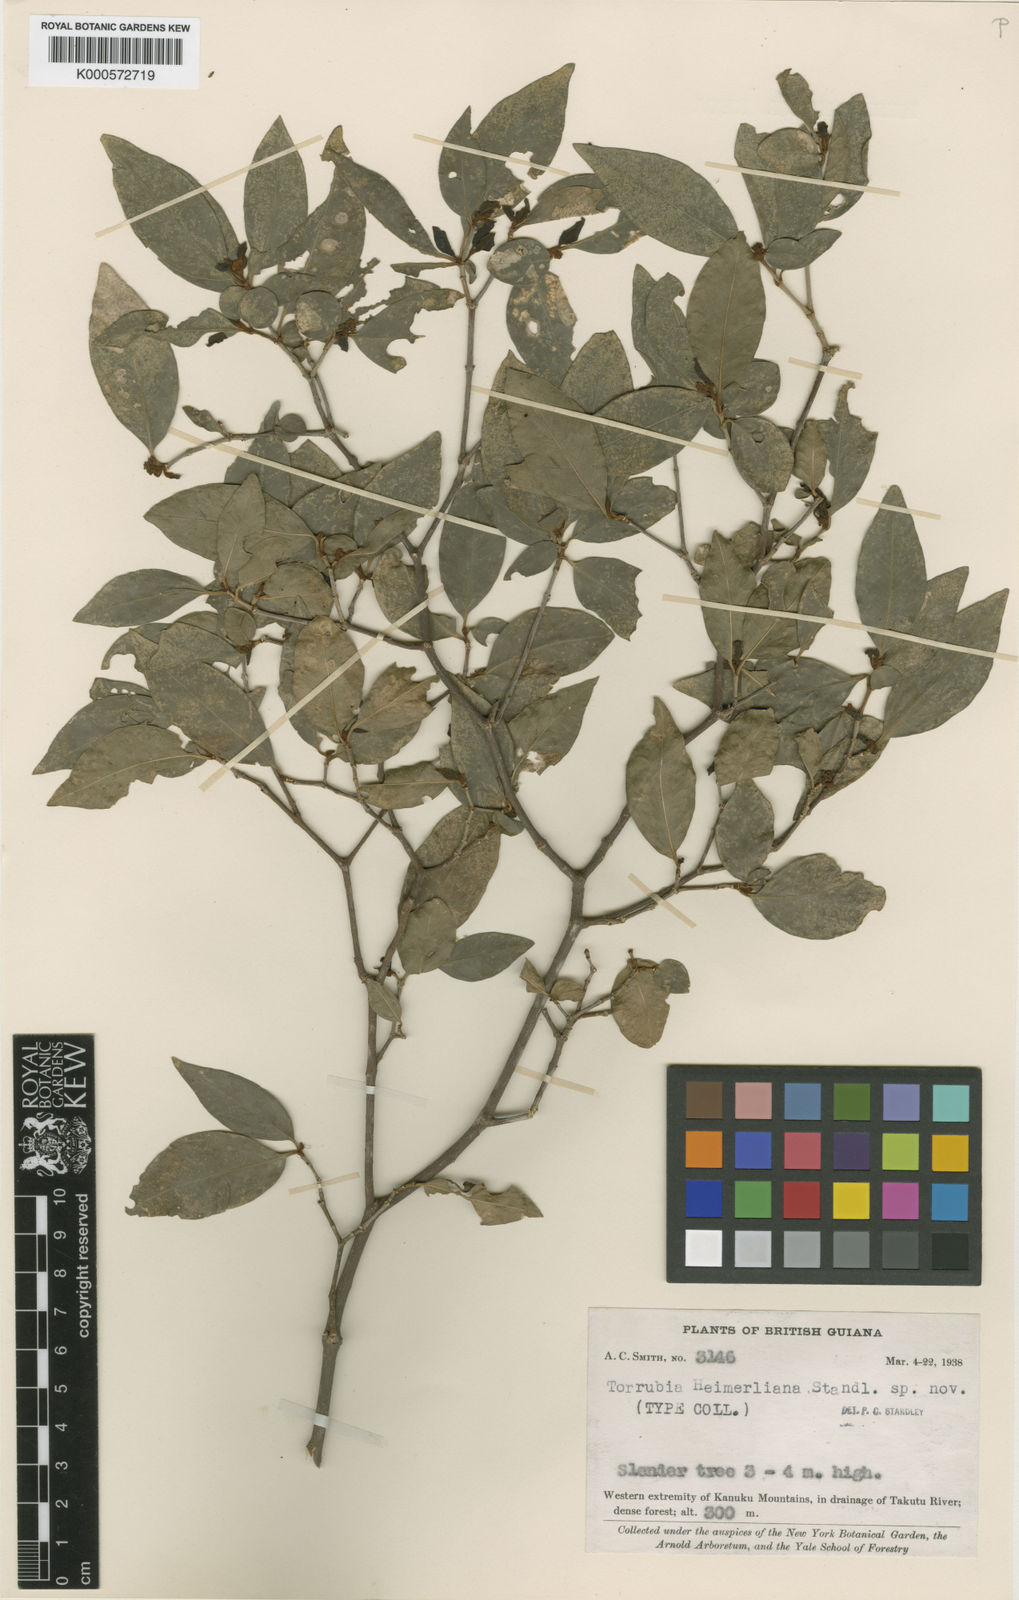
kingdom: Plantae
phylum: Tracheophyta
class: Magnoliopsida
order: Caryophyllales
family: Nyctaginaceae
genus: Guapira
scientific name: Guapira salicifolia
